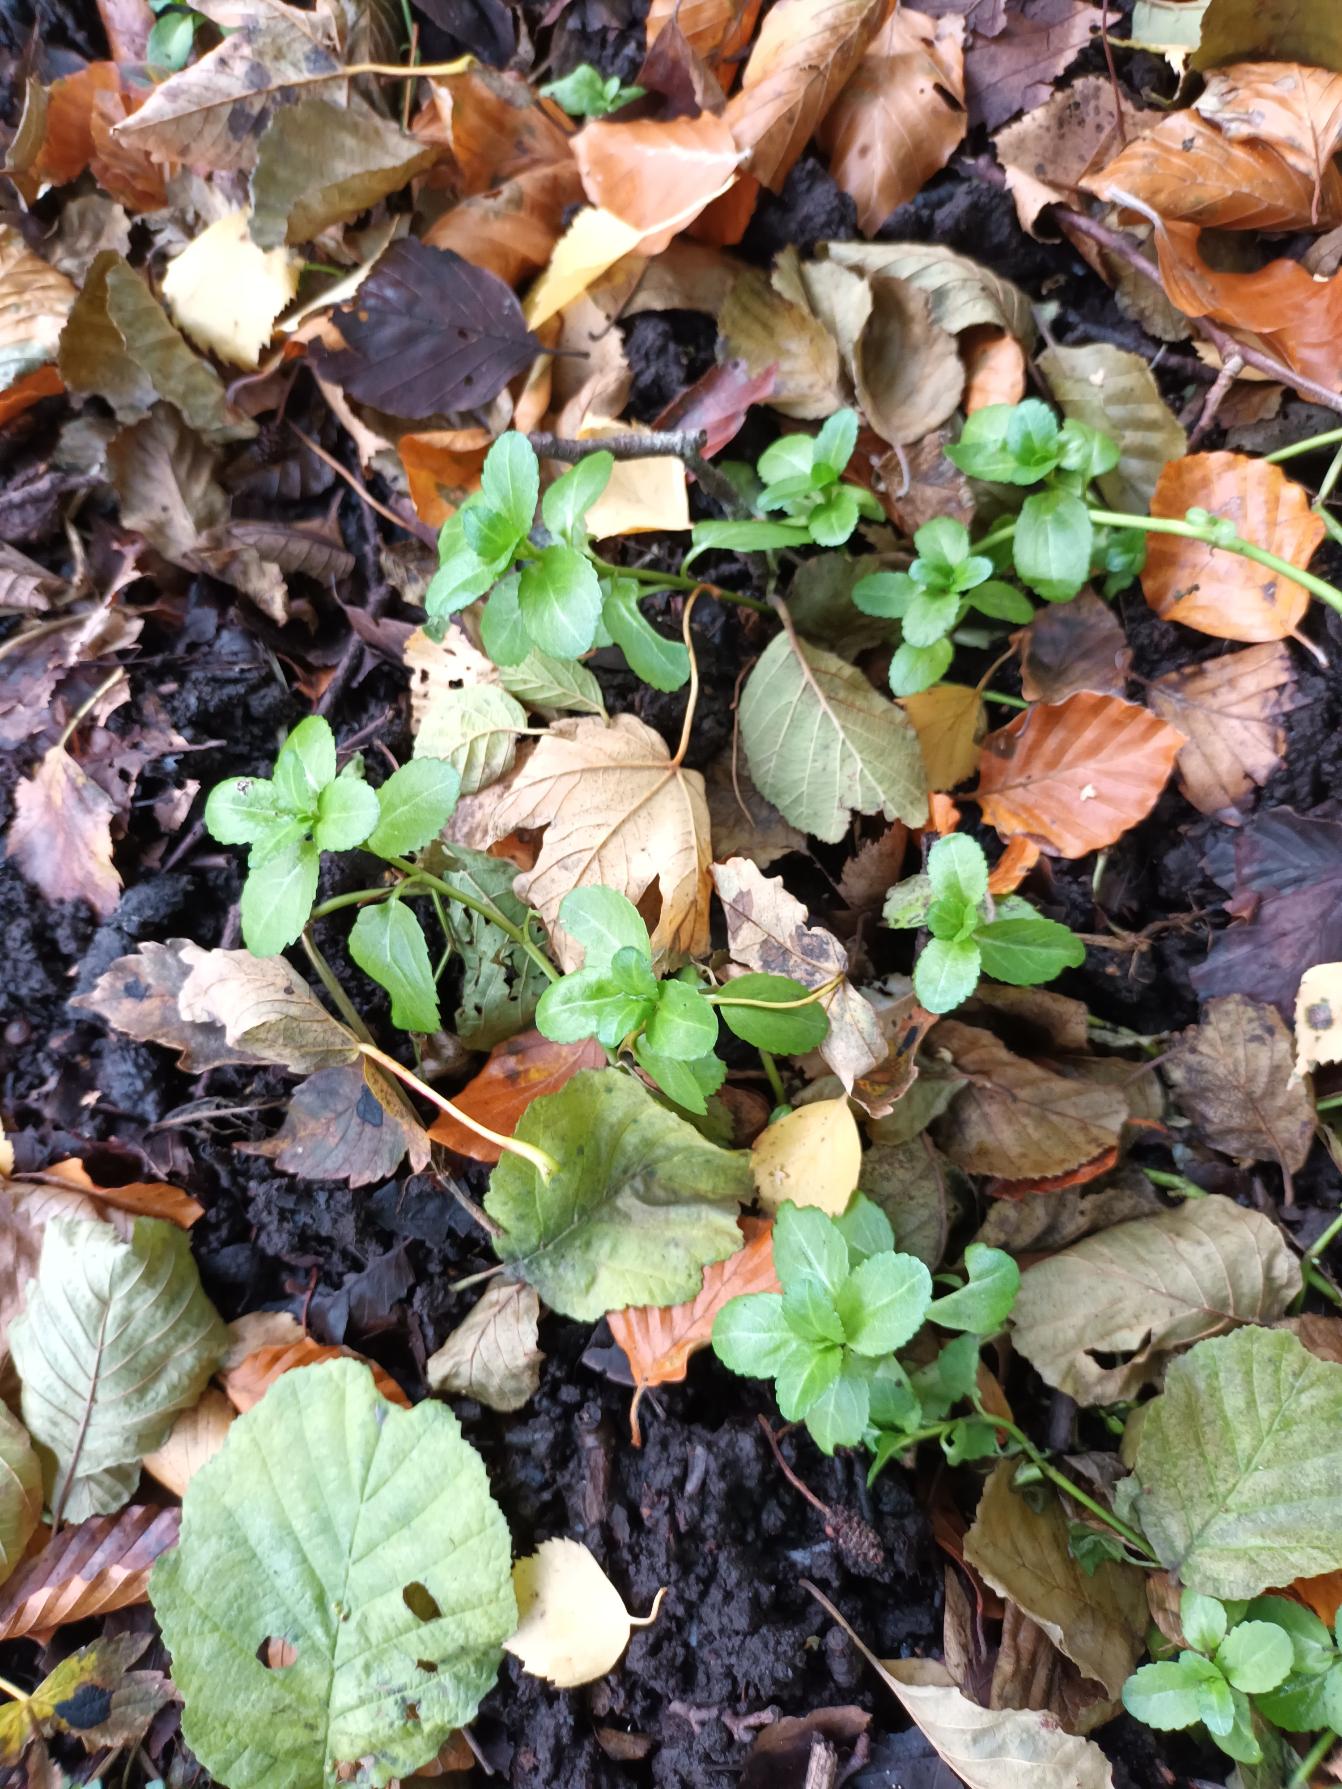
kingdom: Plantae
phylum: Tracheophyta
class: Magnoliopsida
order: Lamiales
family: Plantaginaceae
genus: Veronica
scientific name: Veronica beccabunga
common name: Tykbladet ærenpris
